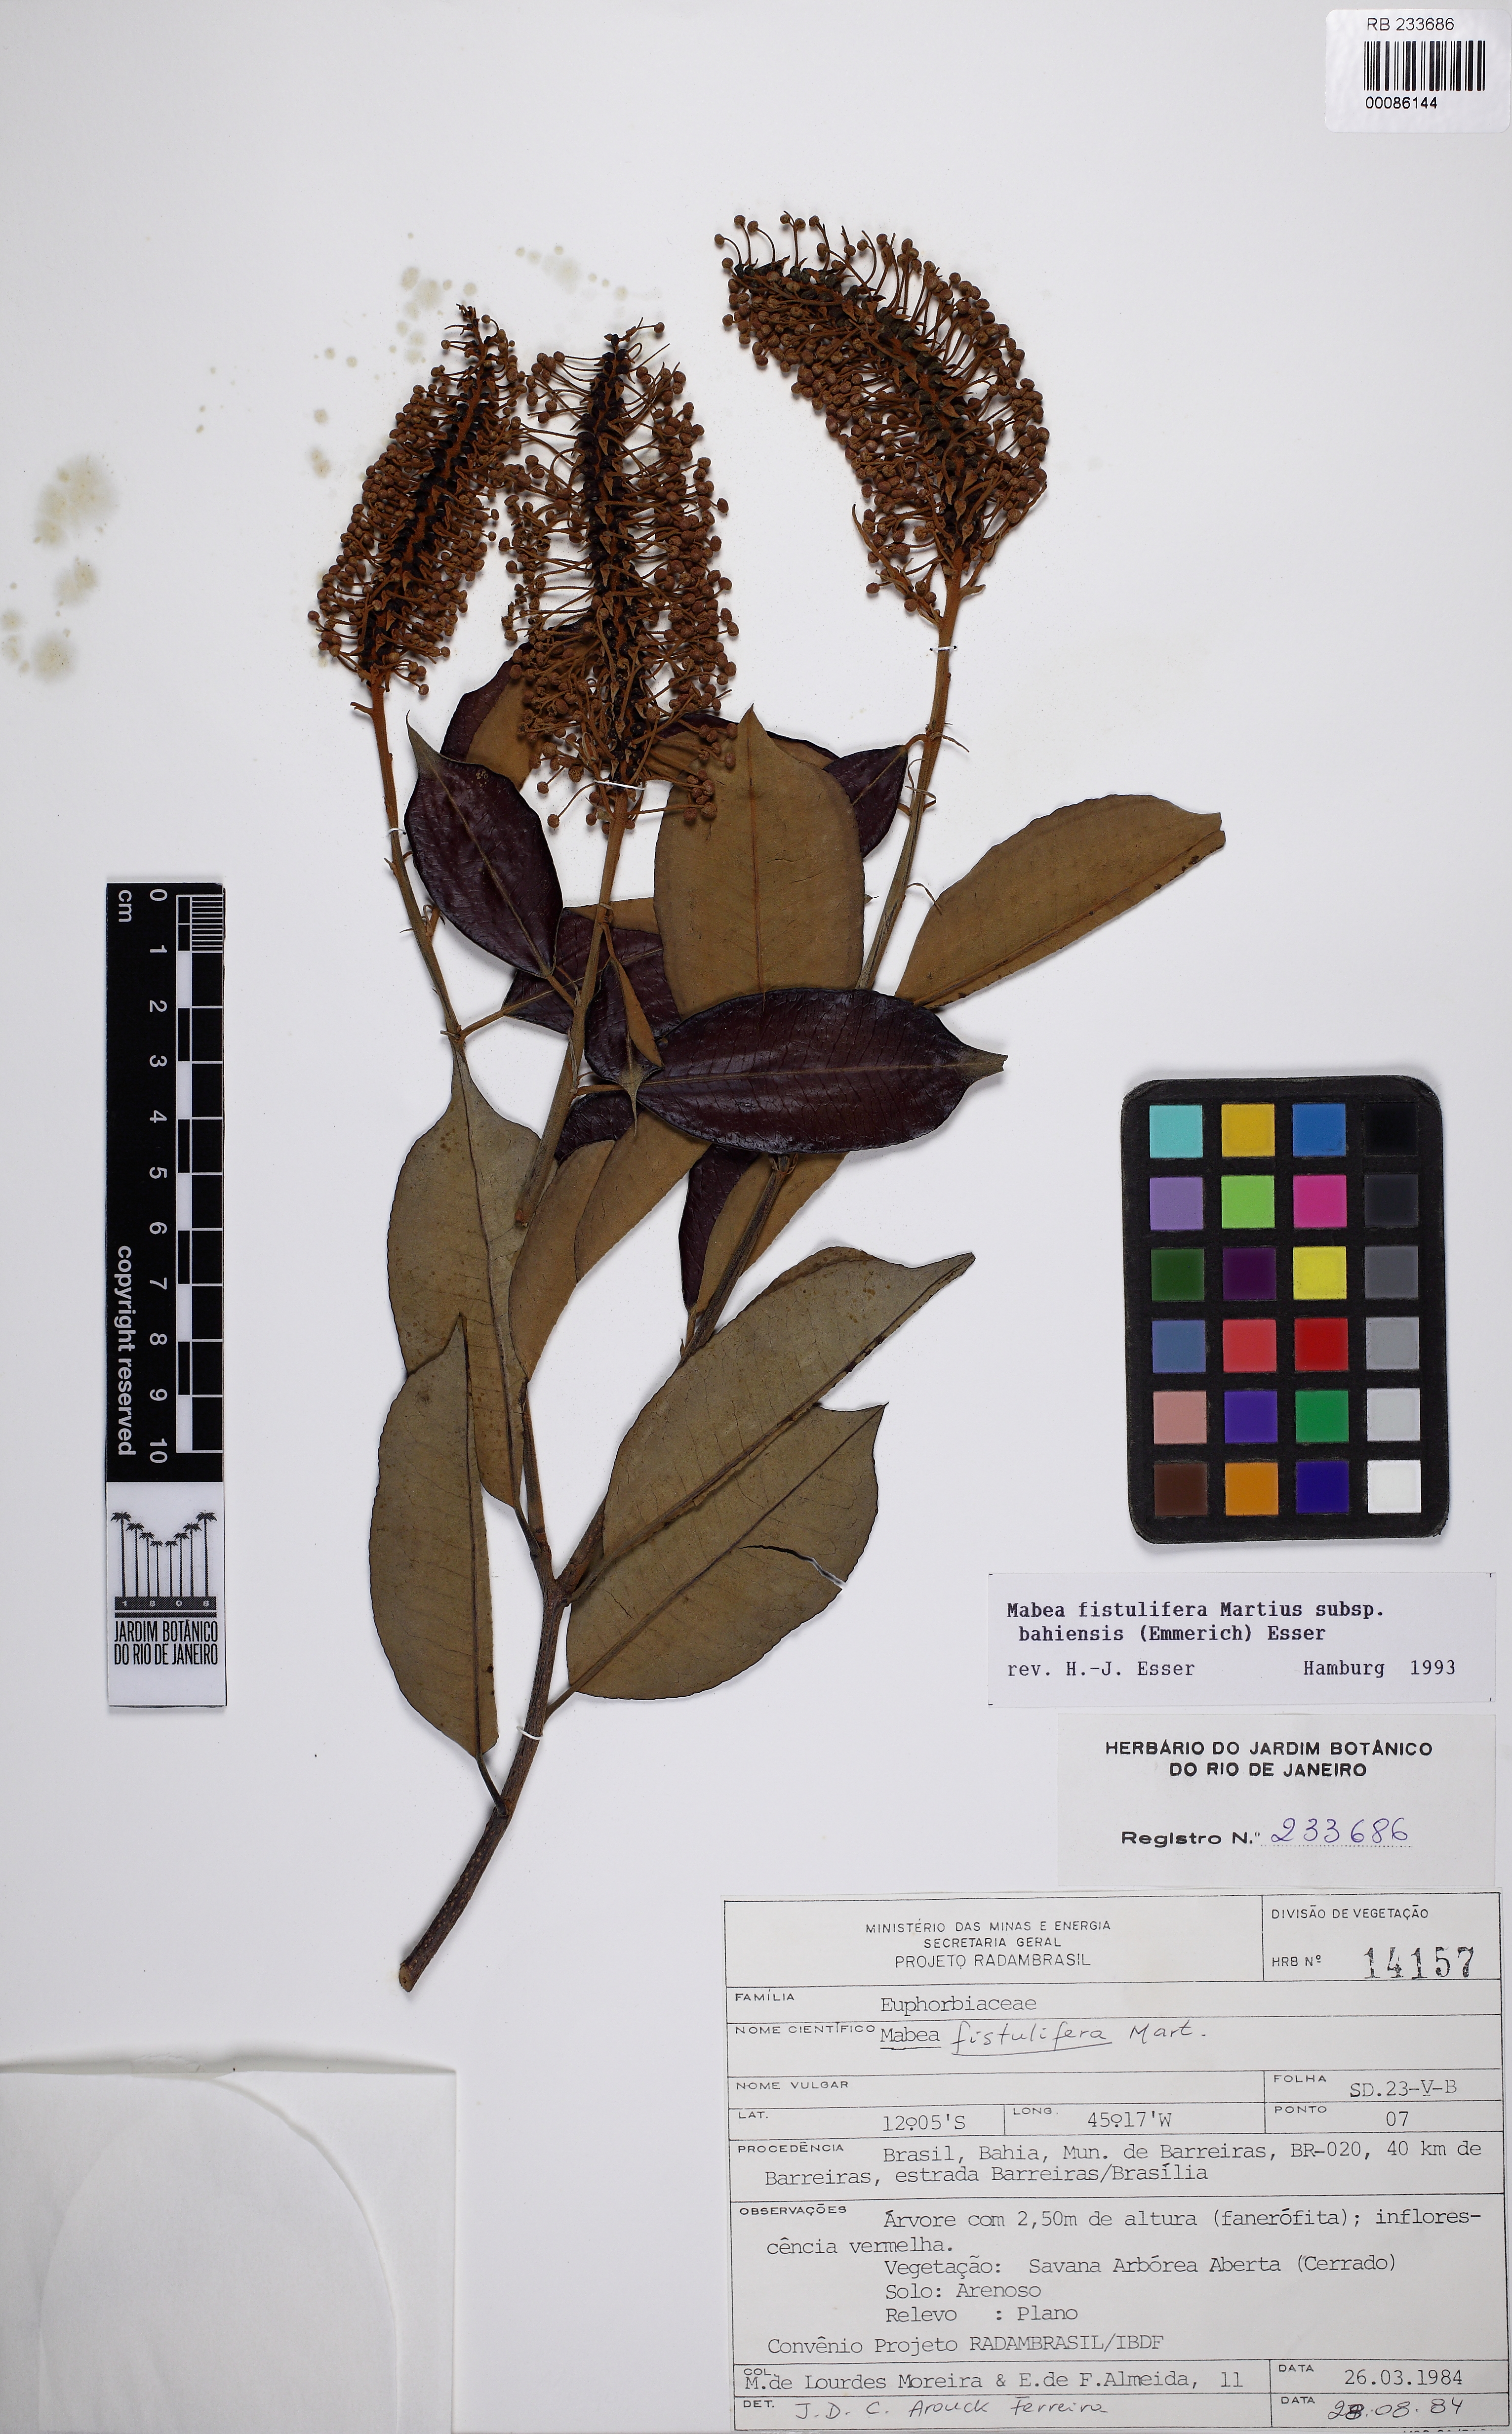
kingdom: Plantae
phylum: Tracheophyta
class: Magnoliopsida
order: Malpighiales
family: Euphorbiaceae
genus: Mabea
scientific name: Mabea fistulifera
